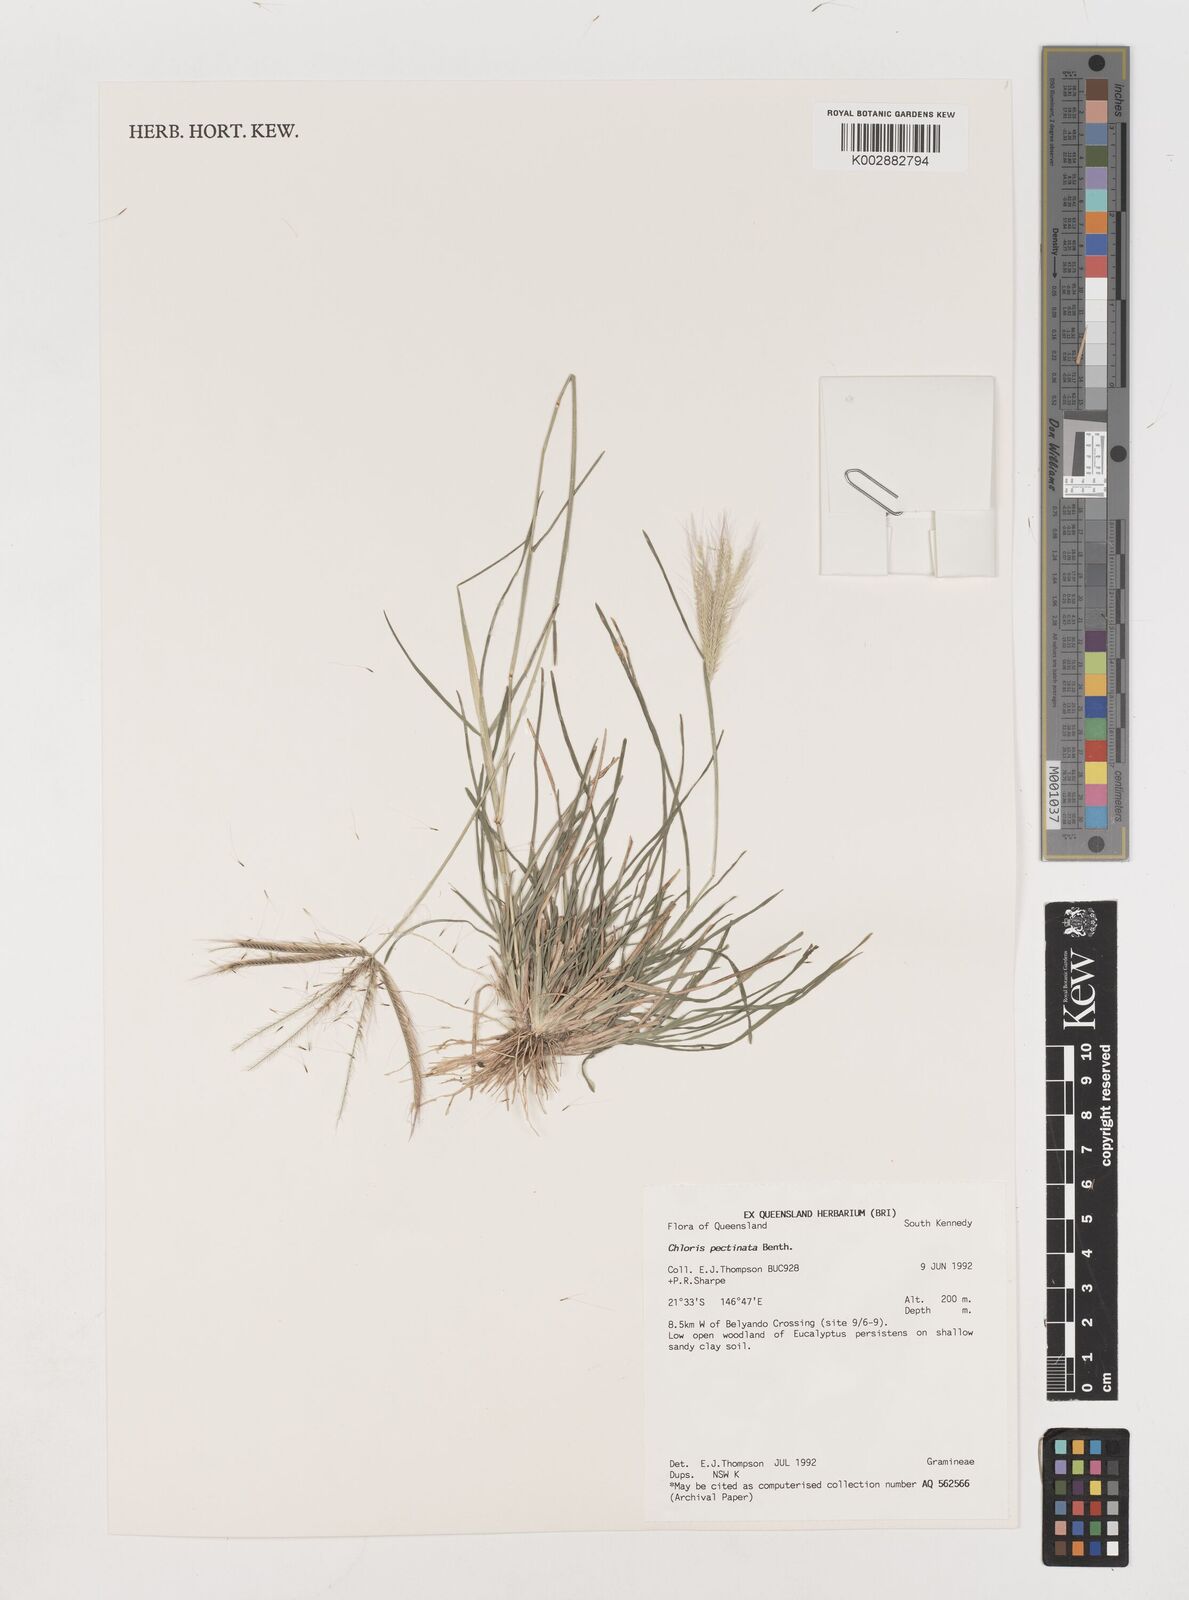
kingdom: Plantae
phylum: Tracheophyta
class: Liliopsida
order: Poales
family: Poaceae
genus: Chloris
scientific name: Chloris pectinata
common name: Comb windmill grass
